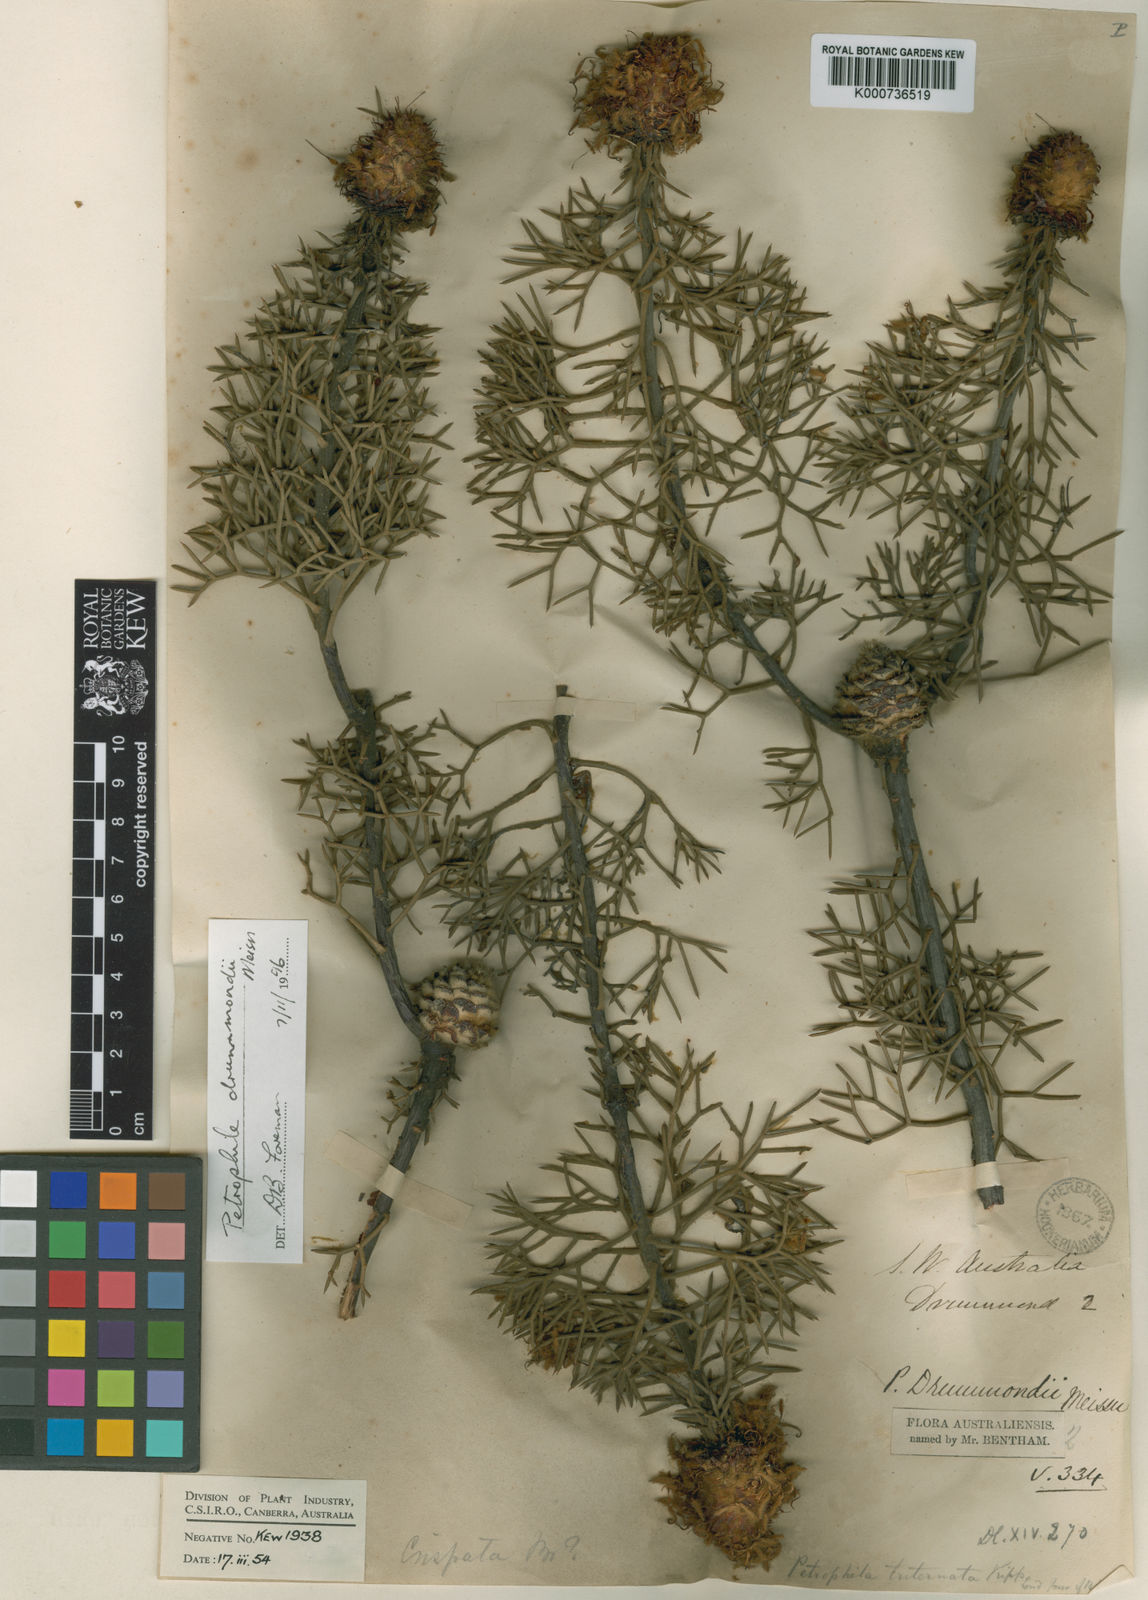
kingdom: Plantae
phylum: Tracheophyta
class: Magnoliopsida
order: Proteales
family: Proteaceae
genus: Petrophile
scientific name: Petrophile drummondii
